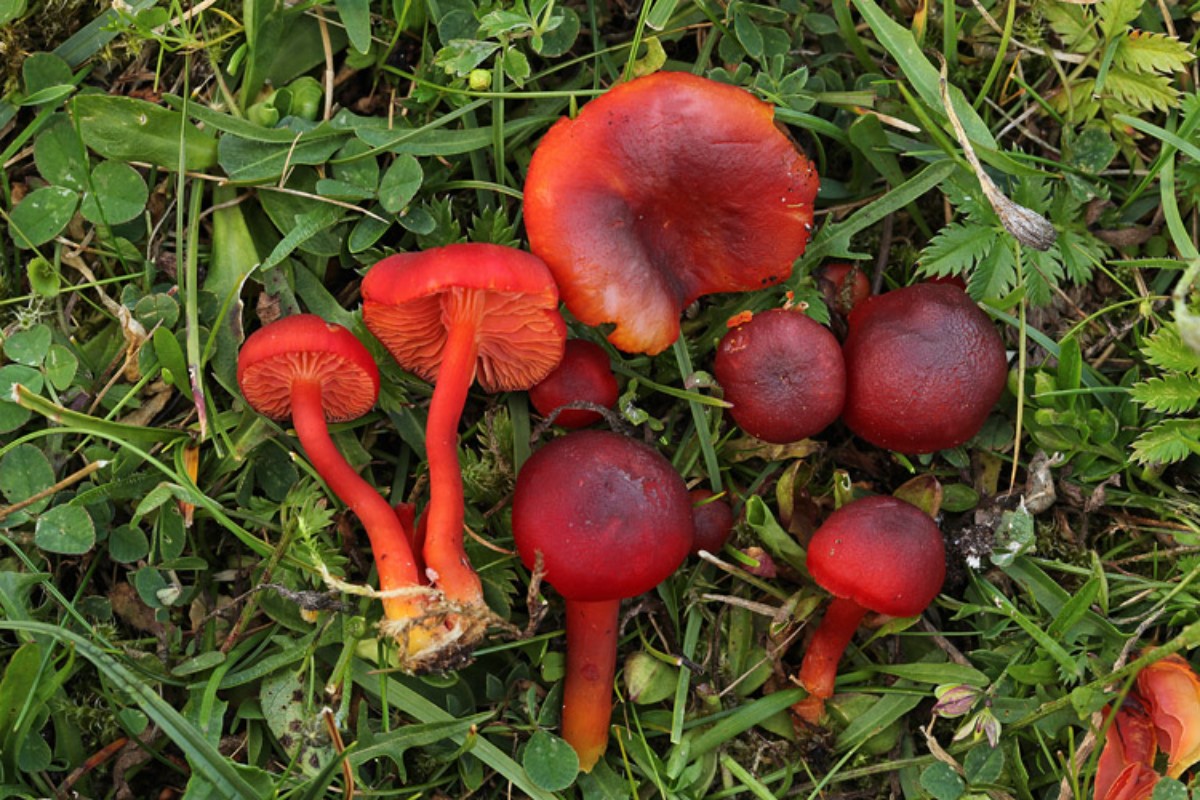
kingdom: Fungi
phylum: Basidiomycota
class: Agaricomycetes
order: Agaricales
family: Hygrophoraceae
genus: Hygrocybe
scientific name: Hygrocybe phaeococcinea
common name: sortdugget vokshat
